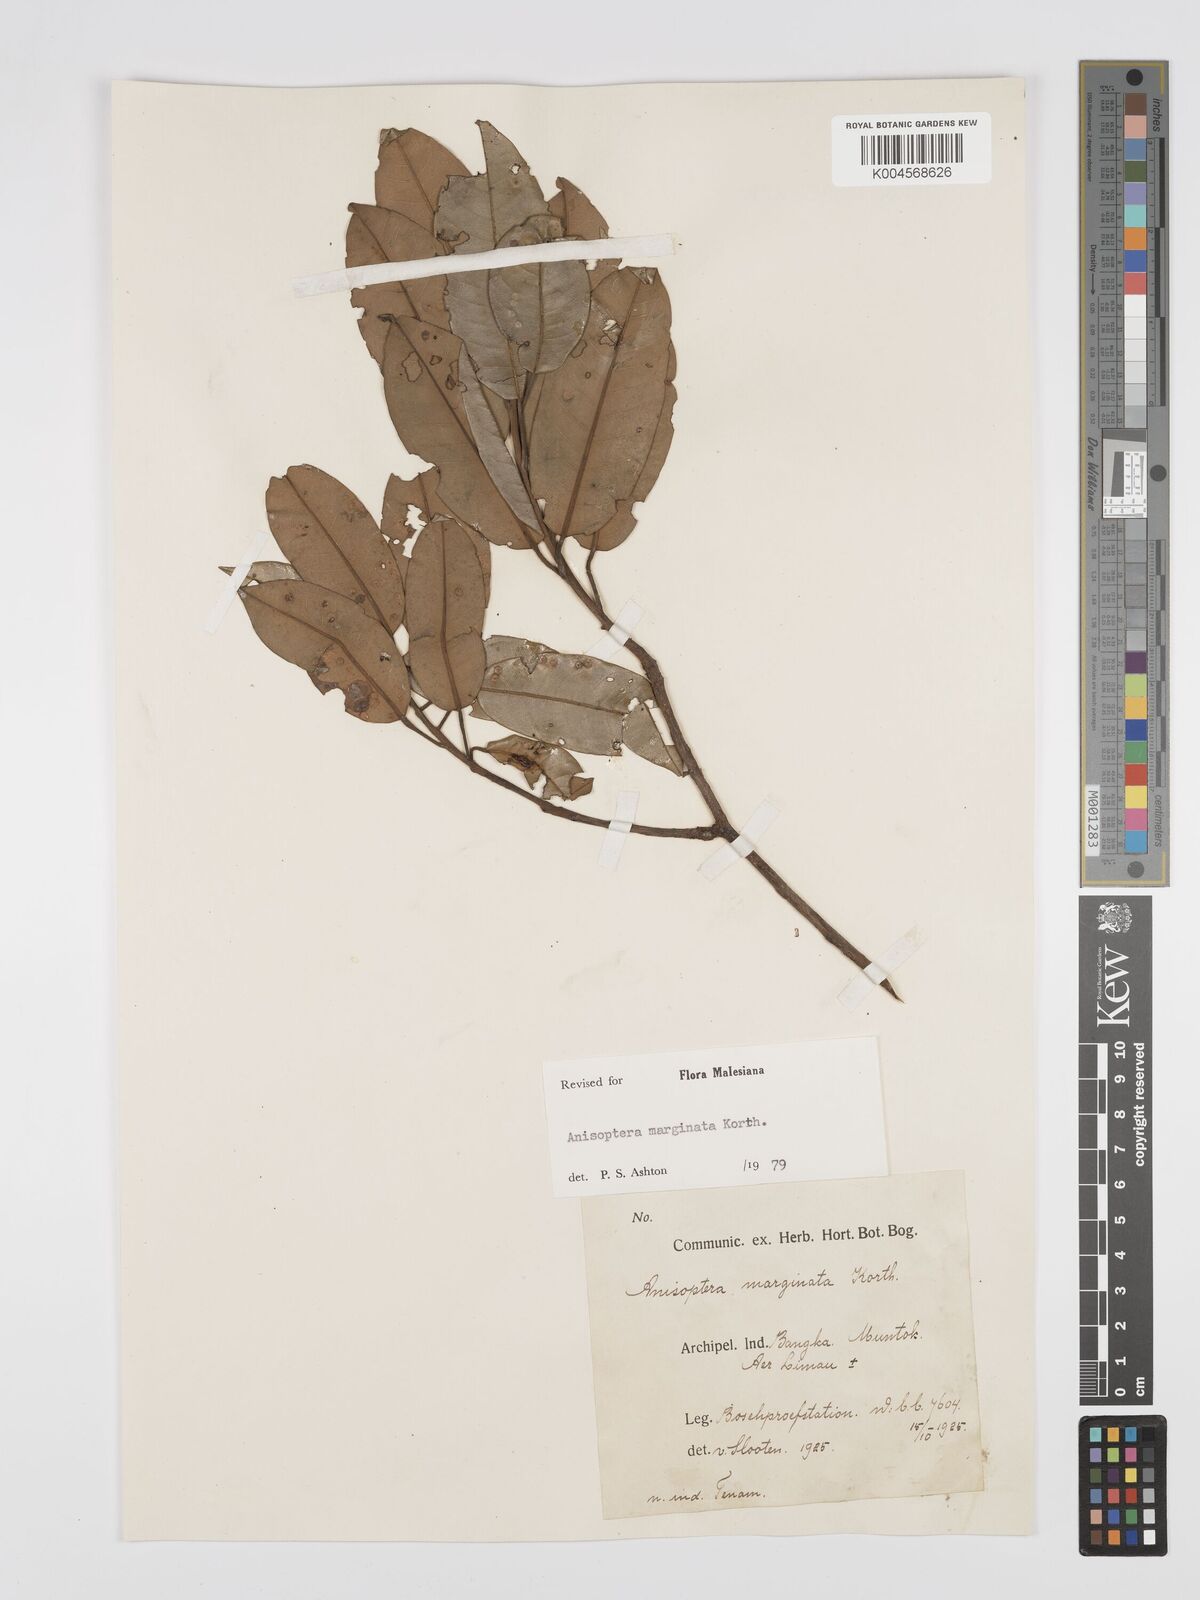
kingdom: Plantae
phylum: Tracheophyta
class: Magnoliopsida
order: Malvales
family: Dipterocarpaceae
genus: Anisoptera
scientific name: Anisoptera marginata
